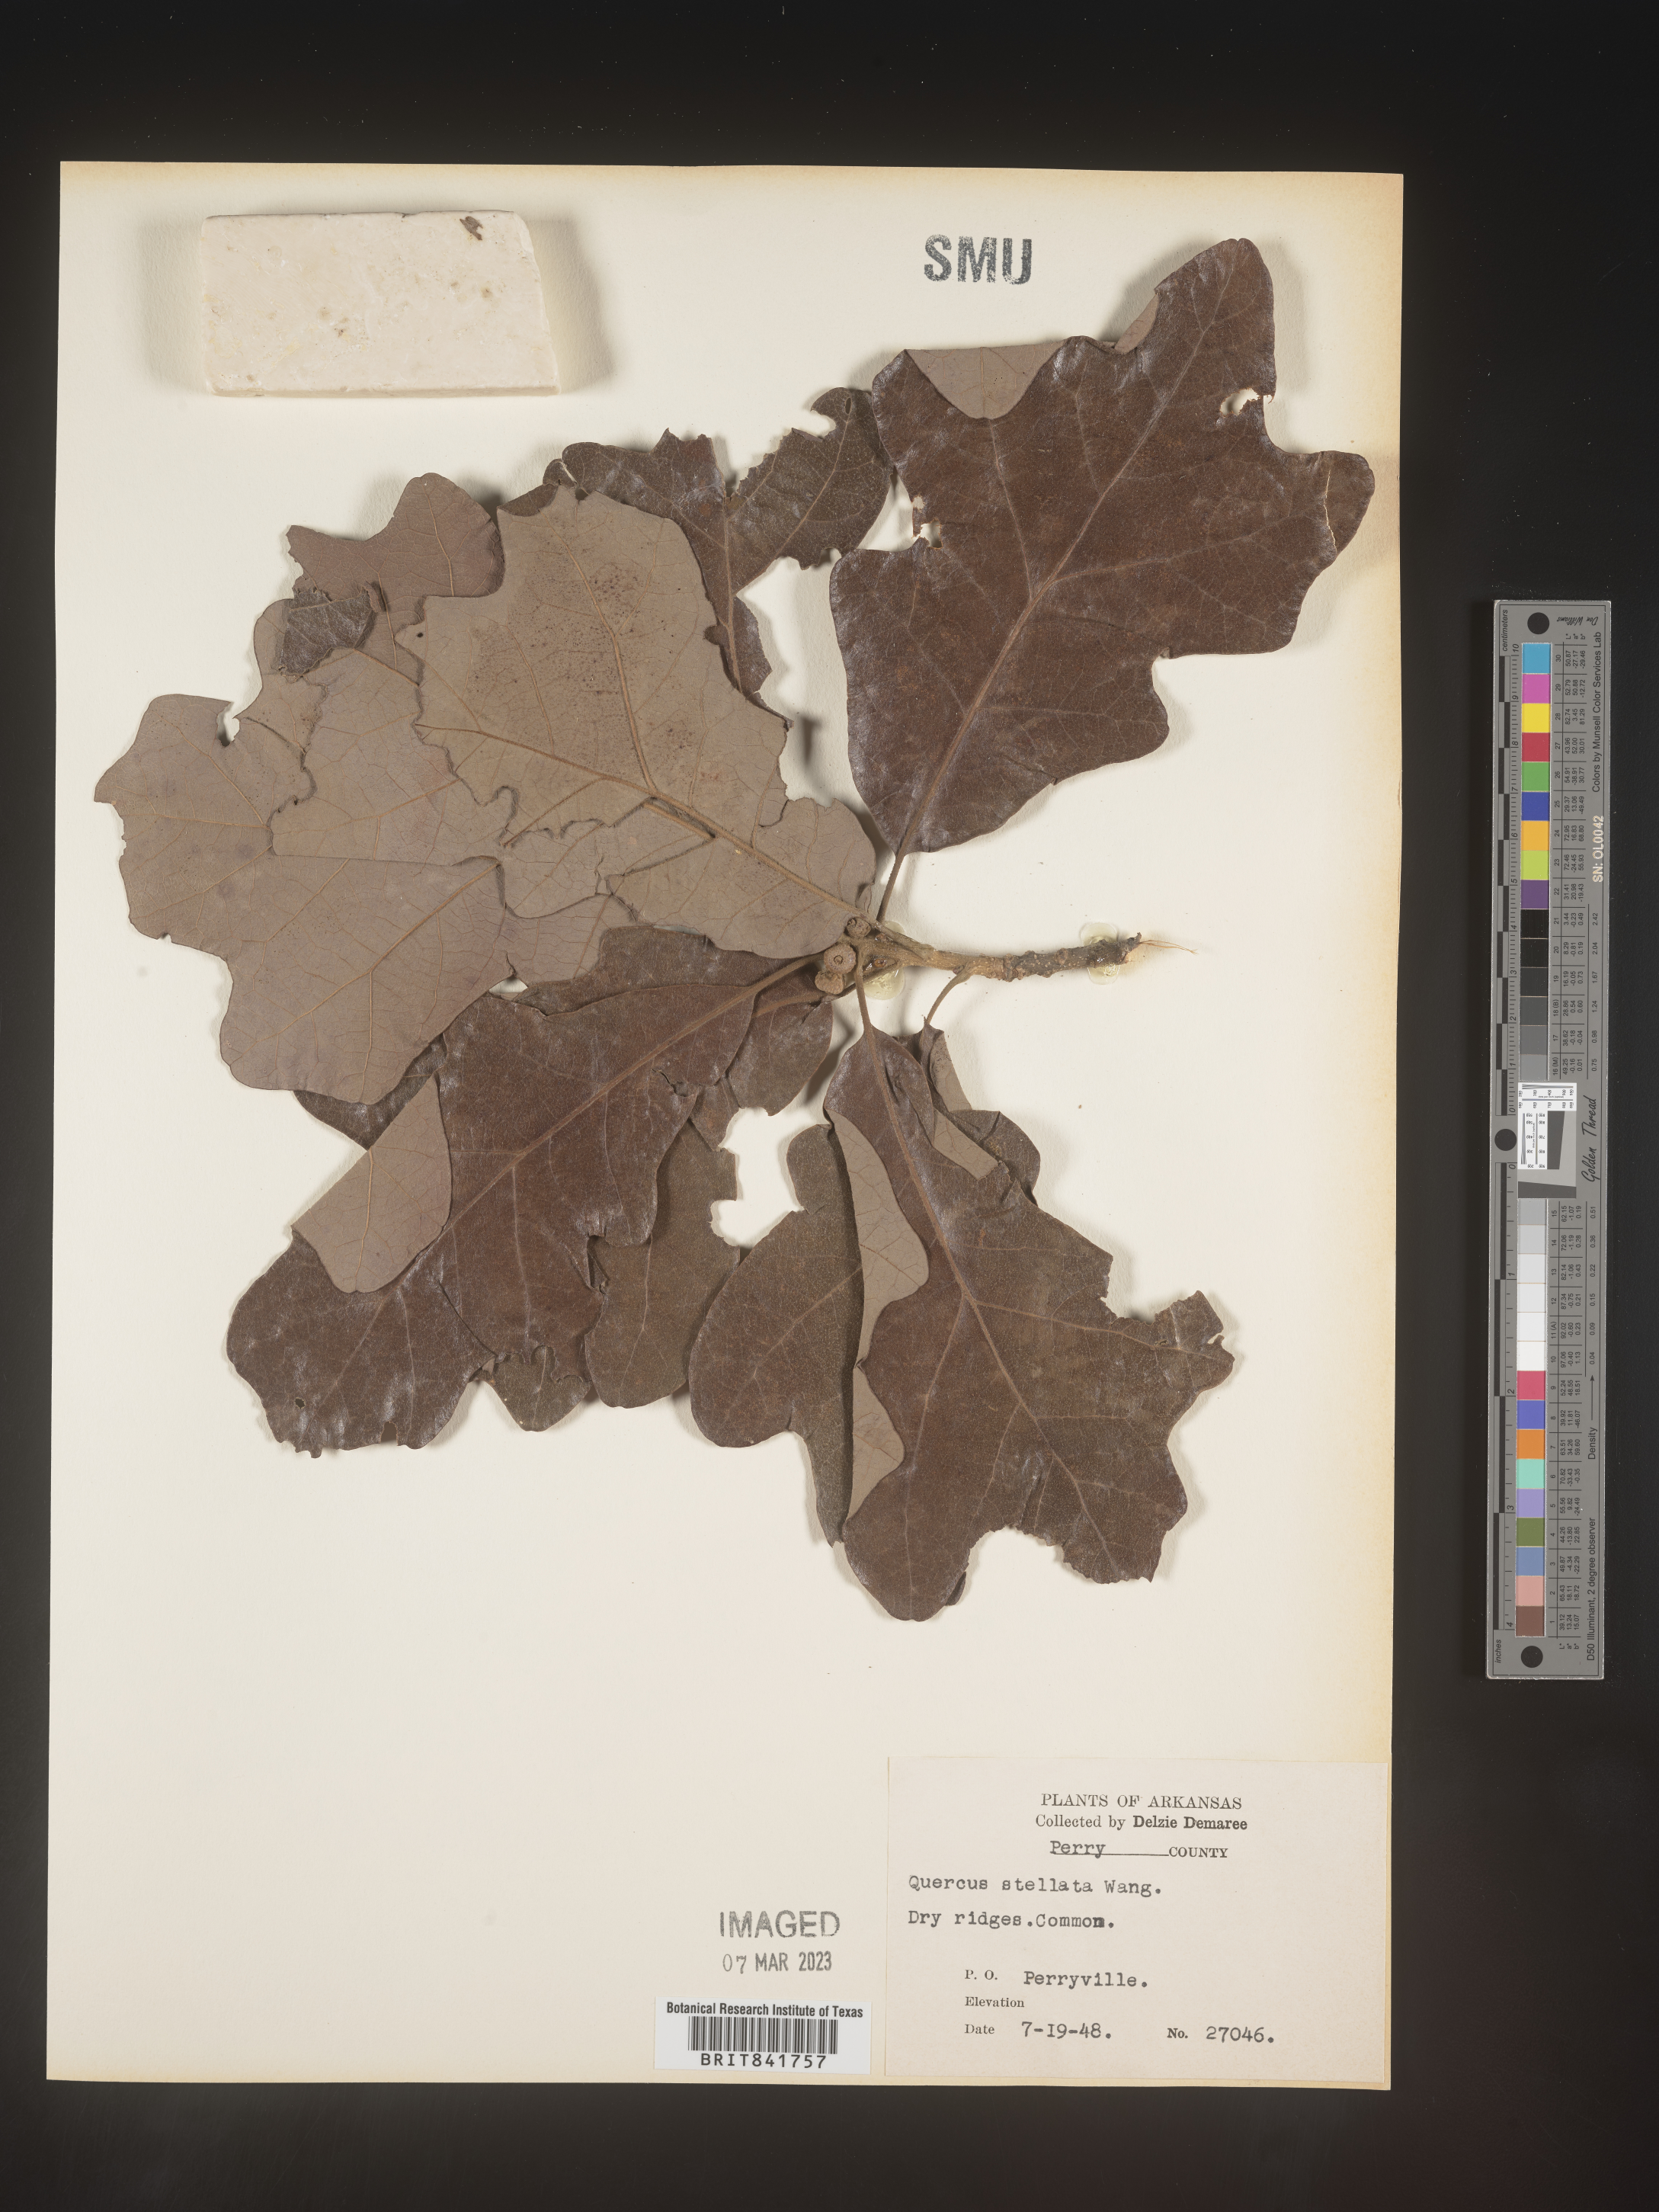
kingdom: Plantae
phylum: Tracheophyta
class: Magnoliopsida
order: Fagales
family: Fagaceae
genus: Quercus
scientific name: Quercus stellata
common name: Post oak
